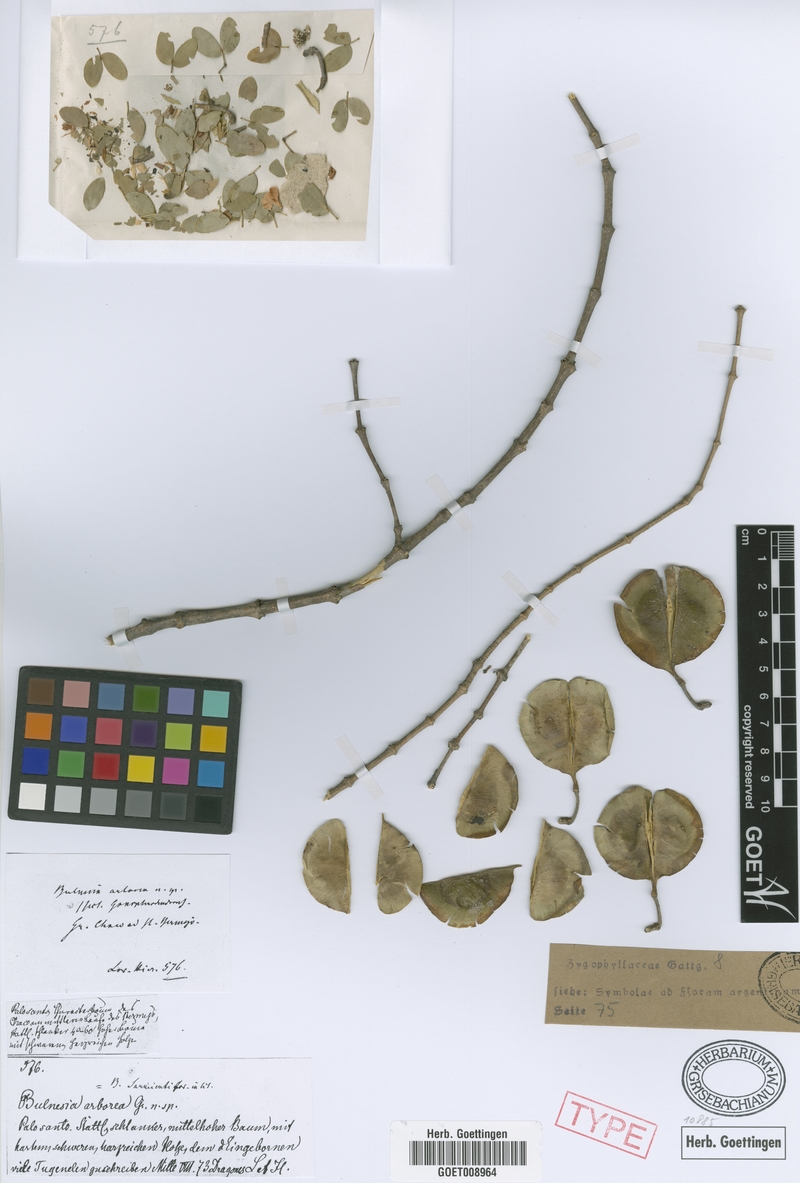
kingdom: Plantae
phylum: Tracheophyta
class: Magnoliopsida
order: Zygophyllales
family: Zygophyllaceae
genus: Gonopterodendron
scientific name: Gonopterodendron sarmientoi
